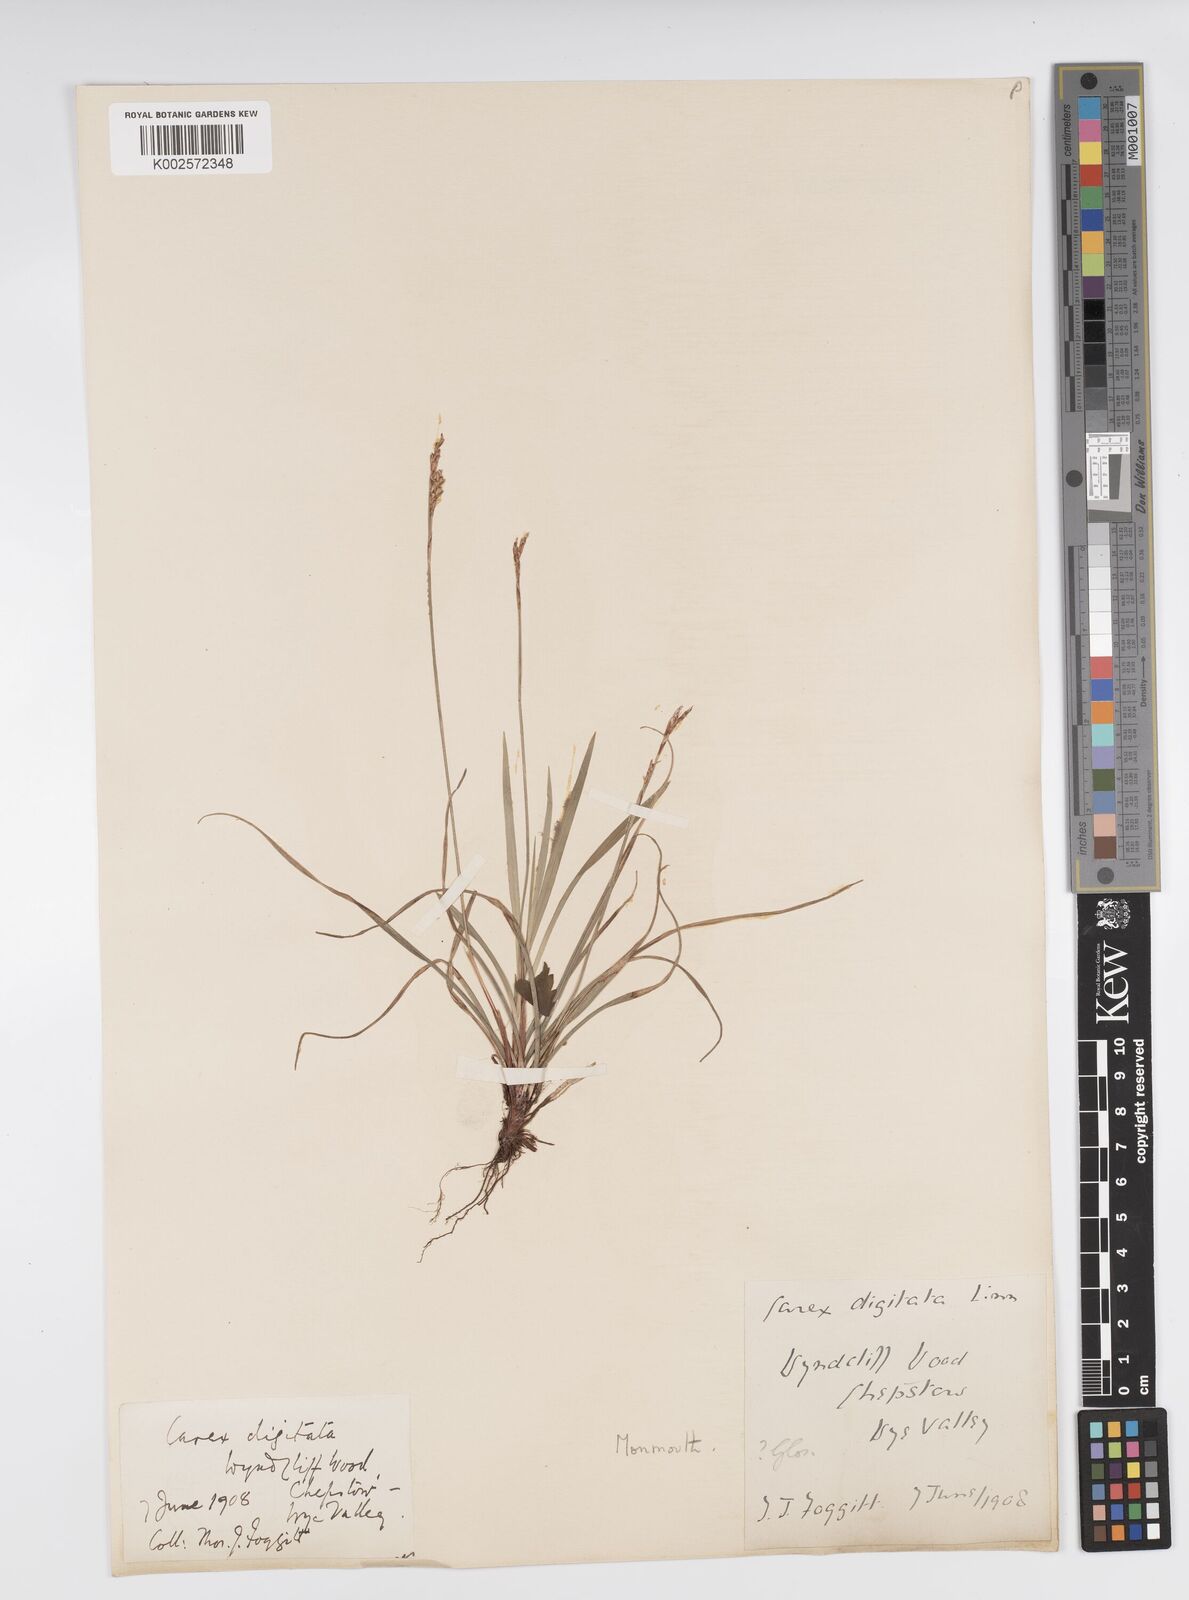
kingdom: Plantae
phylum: Tracheophyta
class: Liliopsida
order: Poales
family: Cyperaceae
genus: Carex
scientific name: Carex digitata
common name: Fingered sedge
